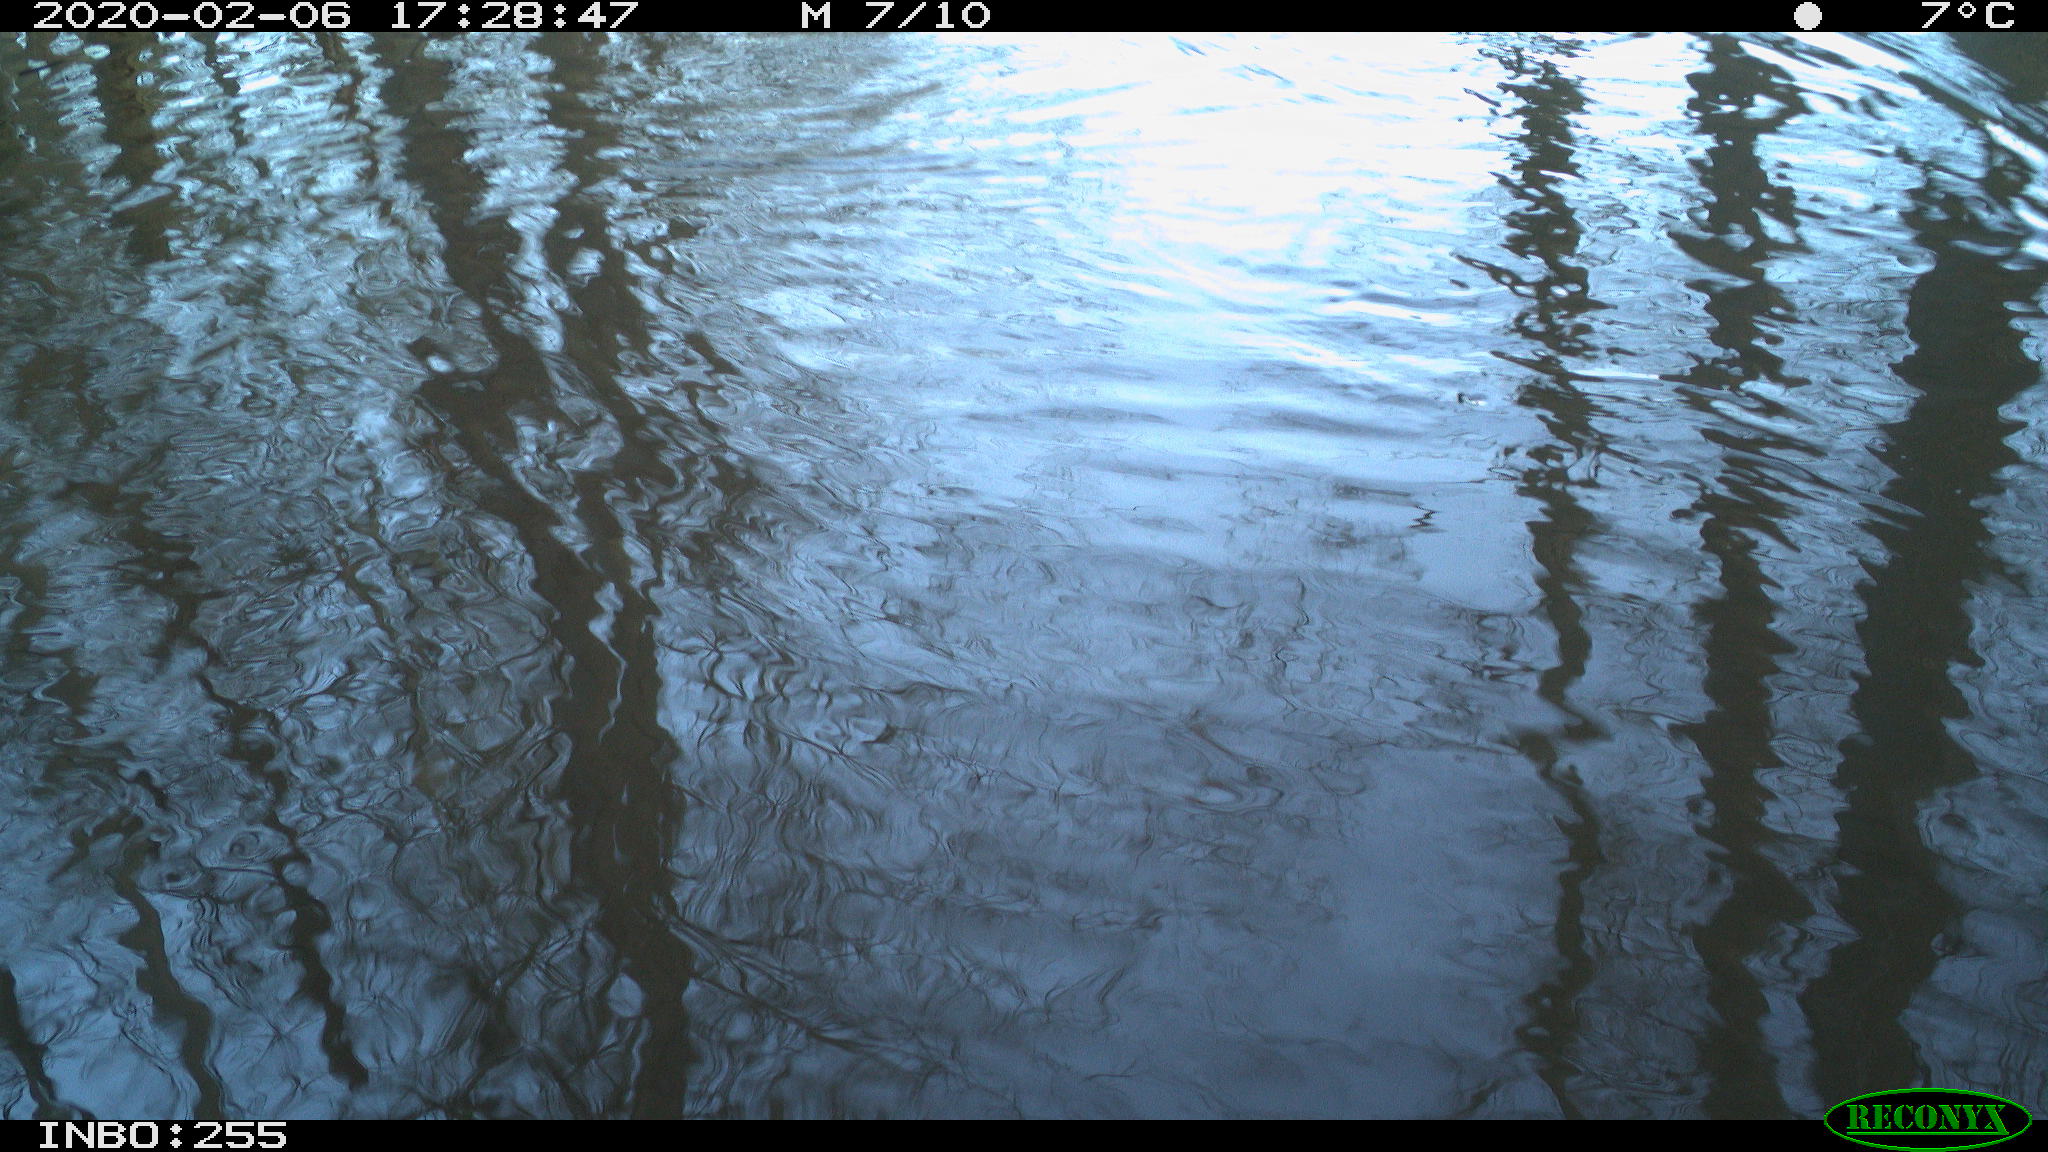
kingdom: Animalia
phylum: Chordata
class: Aves
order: Gruiformes
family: Rallidae
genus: Fulica
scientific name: Fulica atra
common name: Eurasian coot
